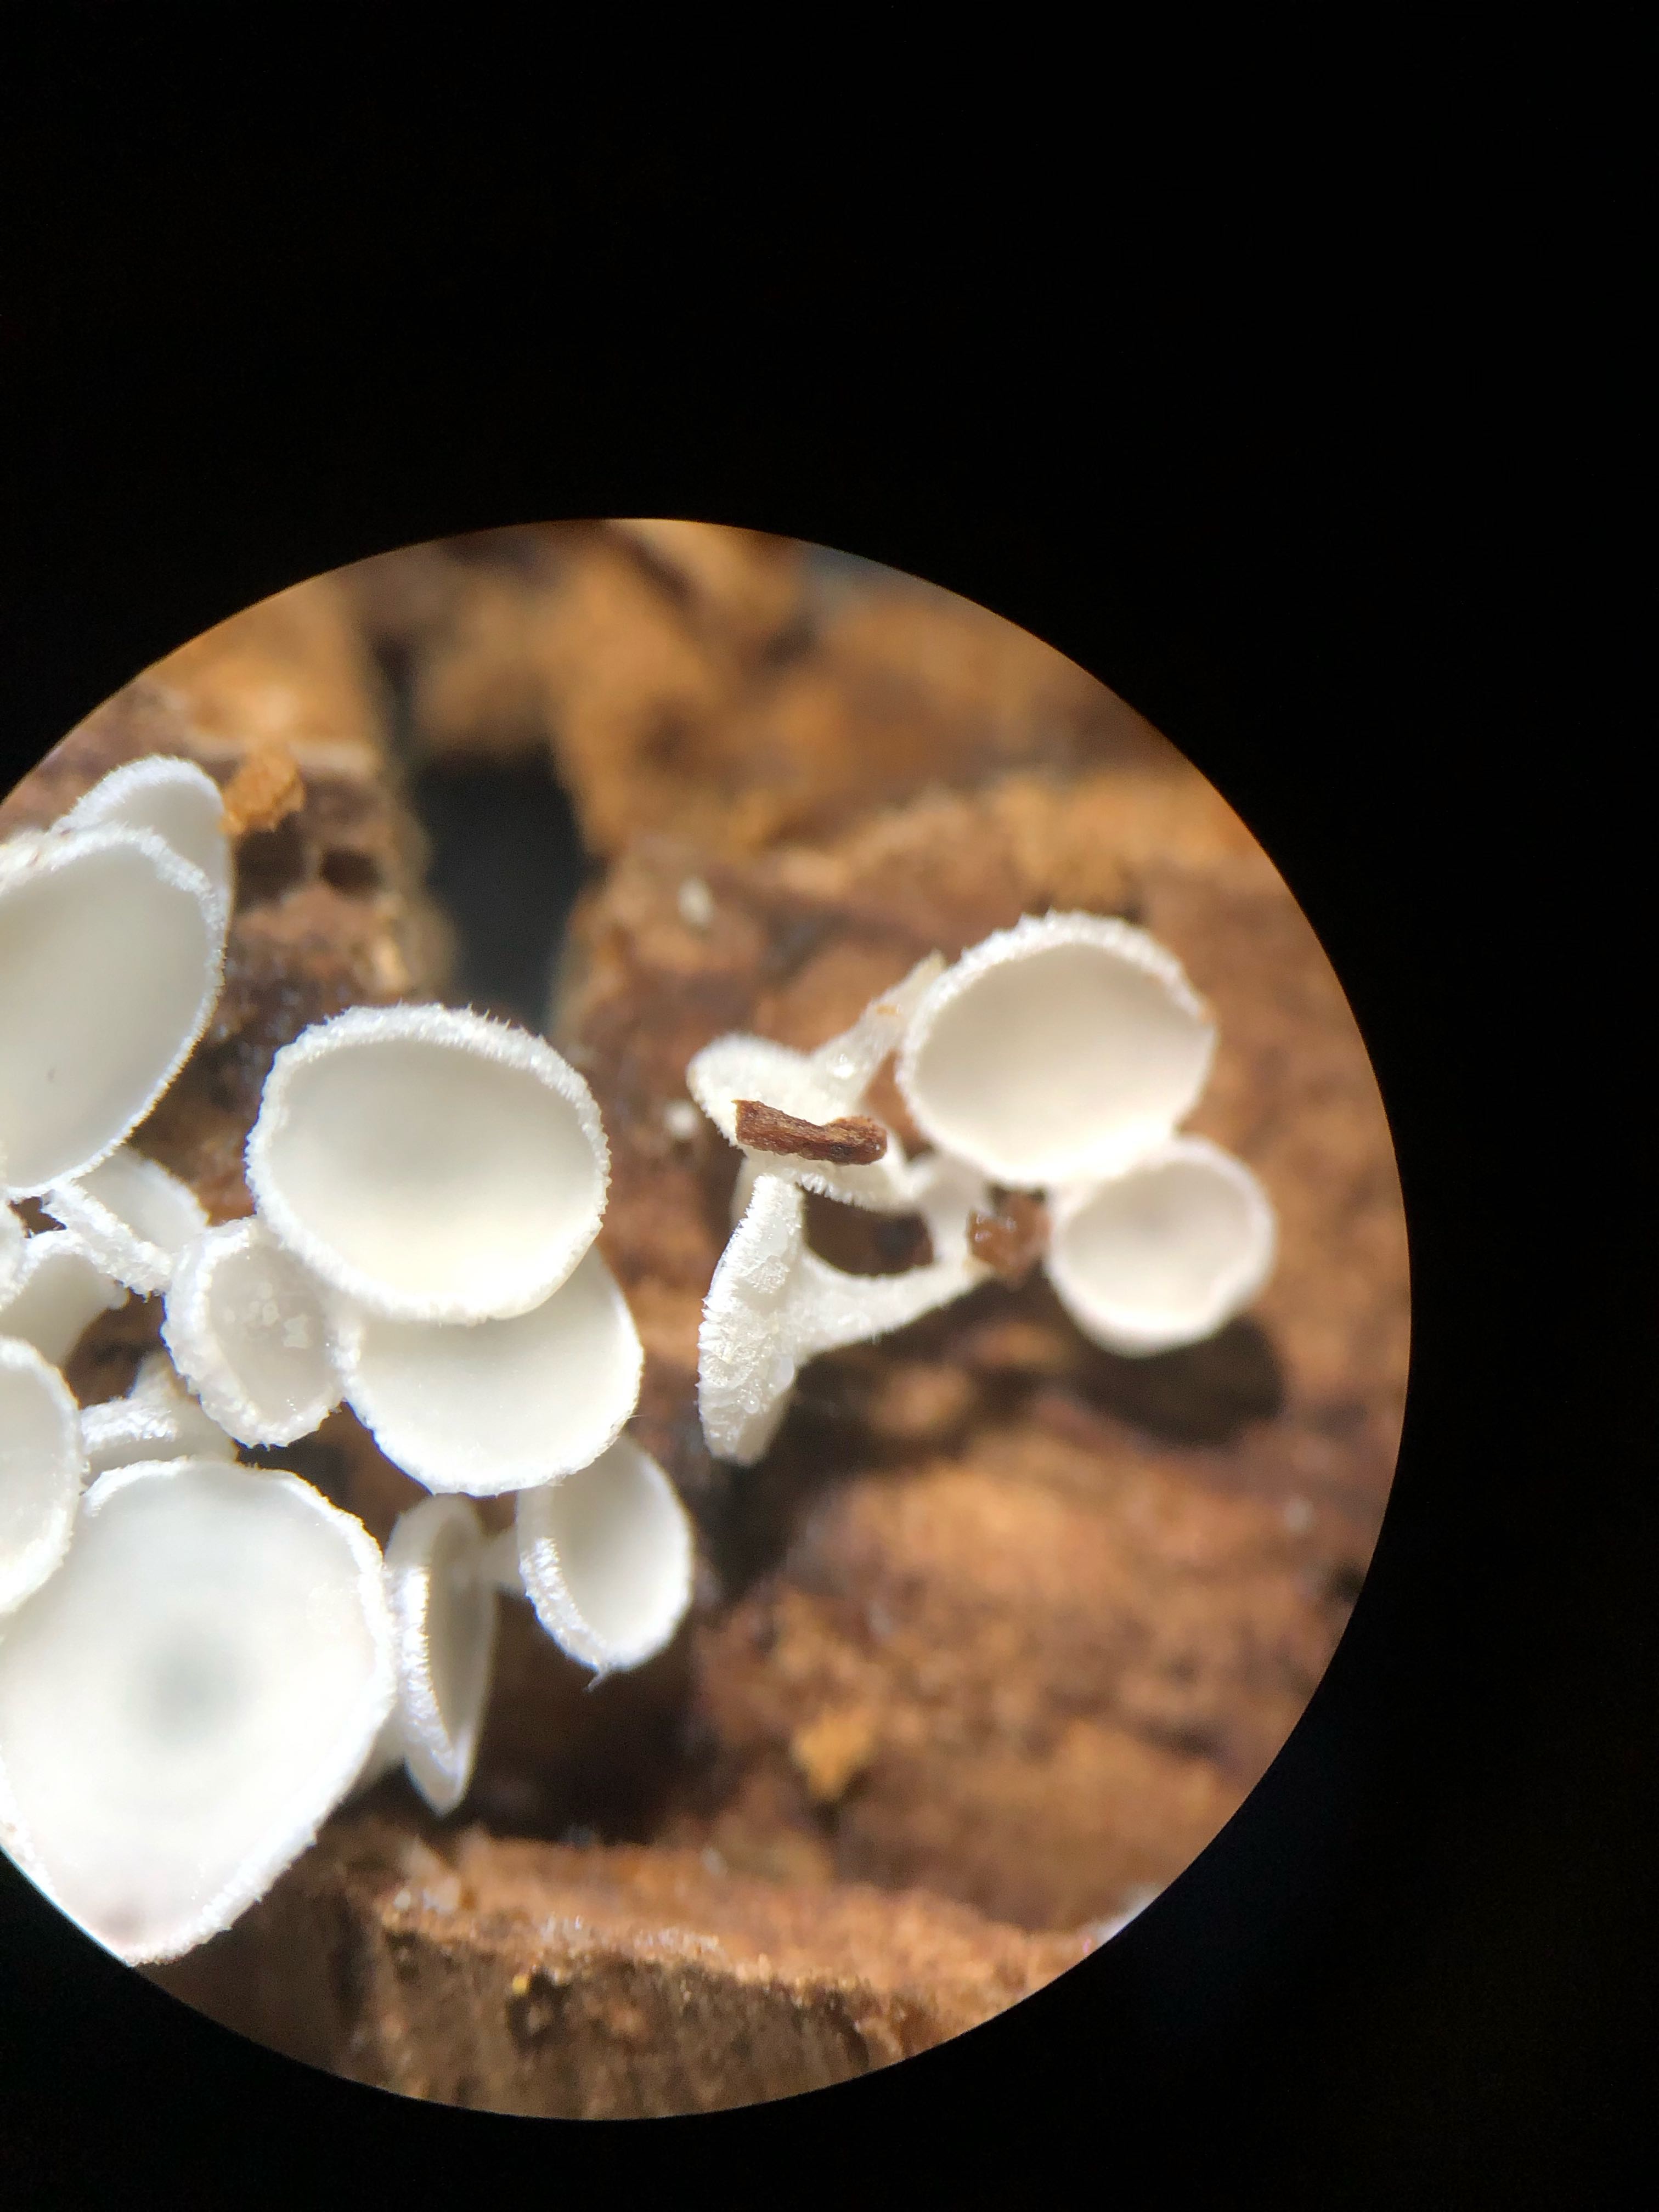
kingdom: Fungi
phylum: Ascomycota
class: Leotiomycetes
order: Helotiales
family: Lachnaceae
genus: Lachnum
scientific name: Lachnum brevipilosum
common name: korthåret frynseskive
